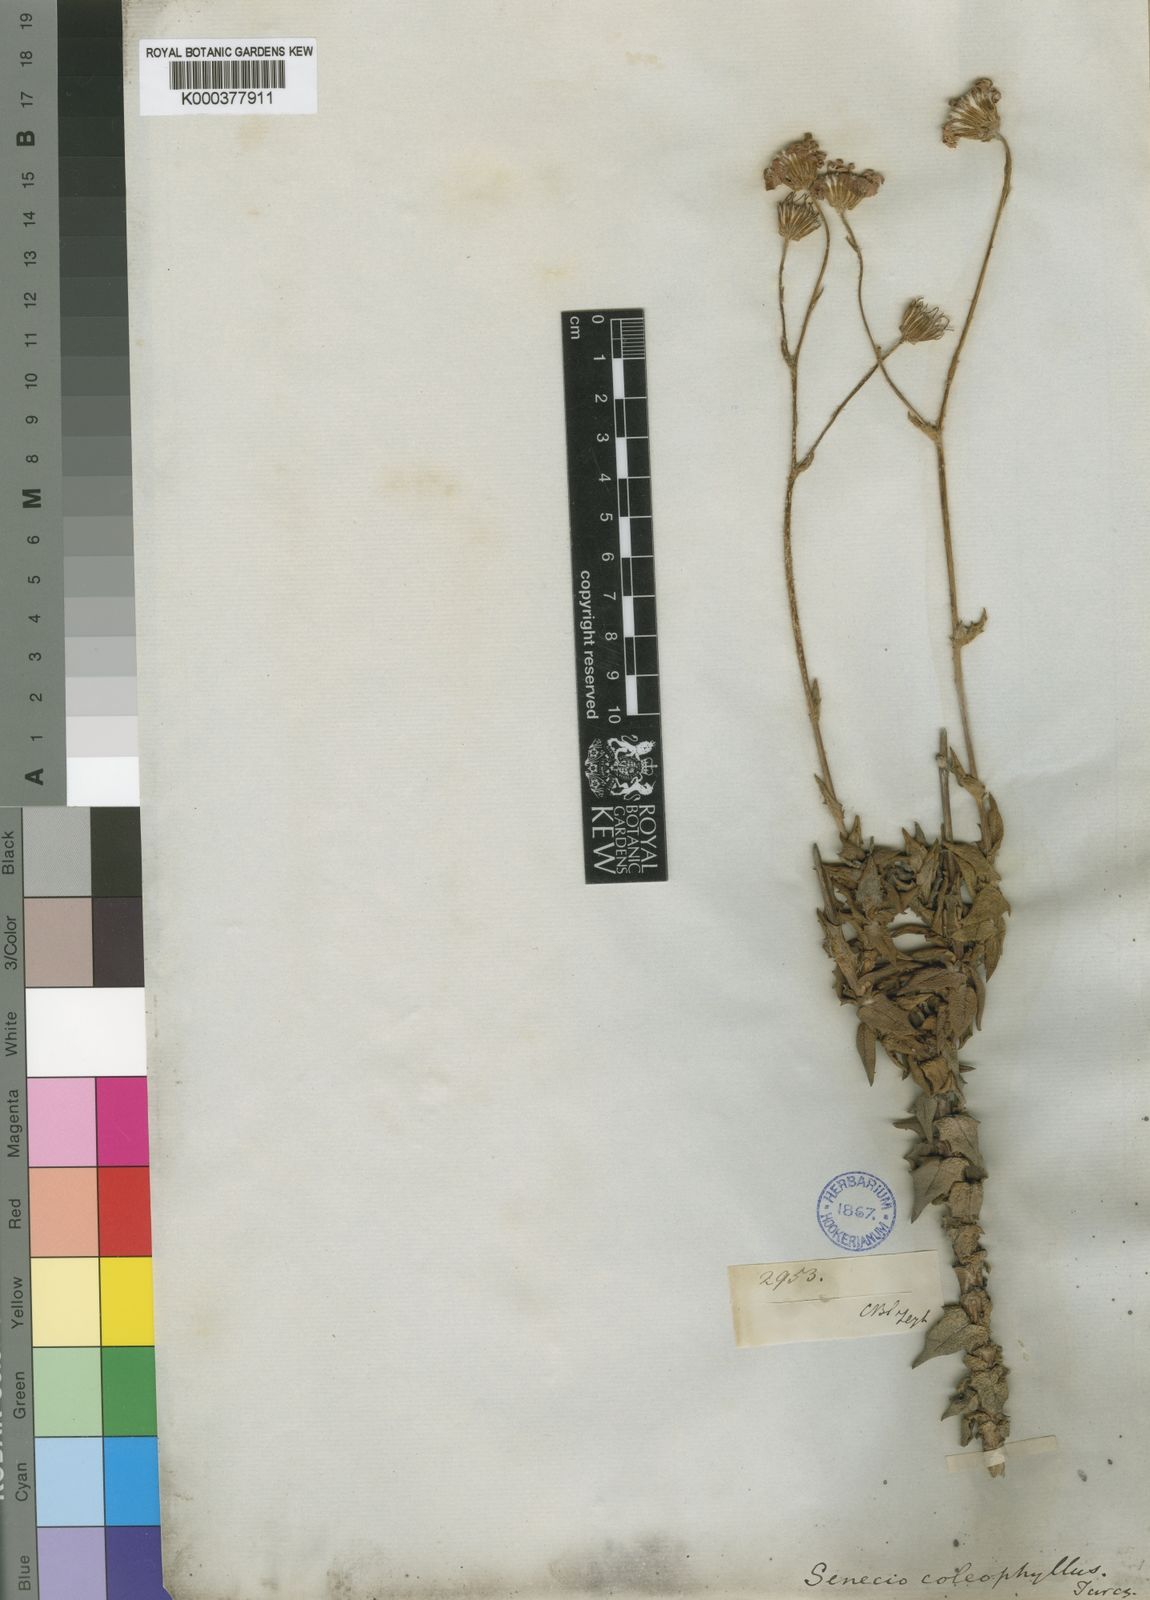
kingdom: Plantae
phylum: Tracheophyta
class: Magnoliopsida
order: Asterales
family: Asteraceae
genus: Senecio
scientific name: Senecio coleophyllus
